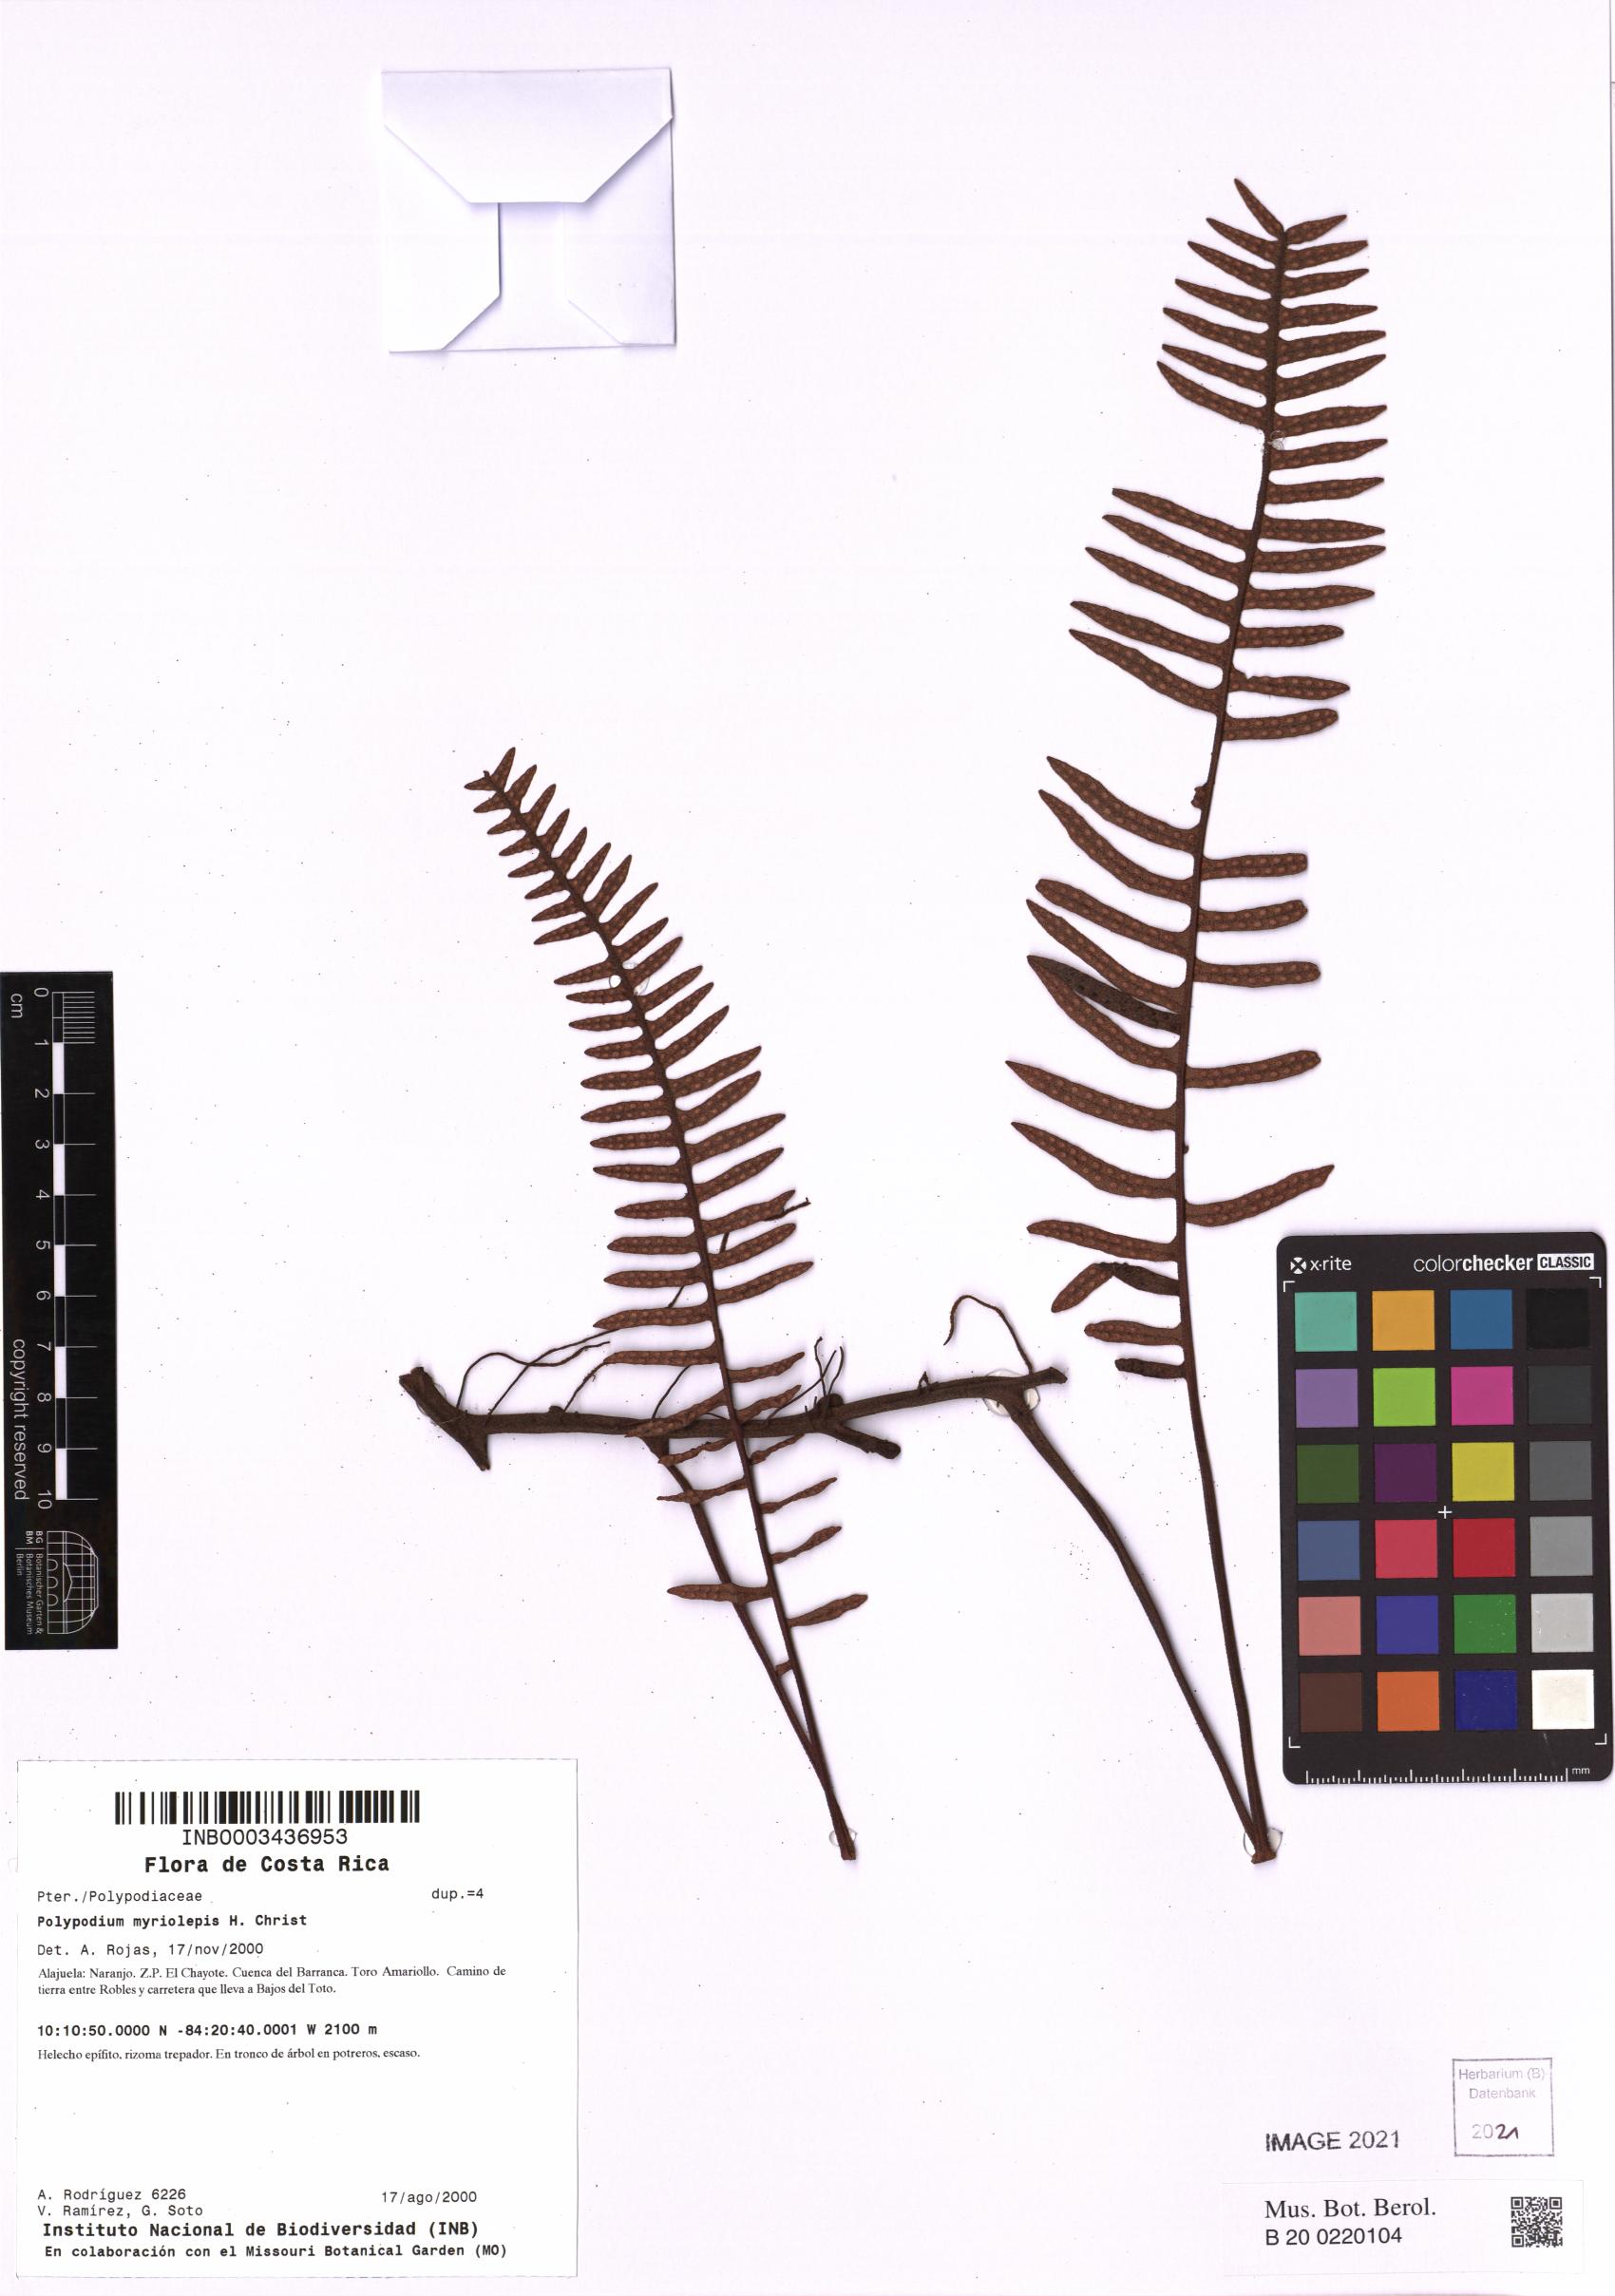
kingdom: Plantae
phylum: Tracheophyta
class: Polypodiopsida
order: Polypodiales
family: Polypodiaceae
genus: Pleopeltis
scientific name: Pleopeltis myriolepis
